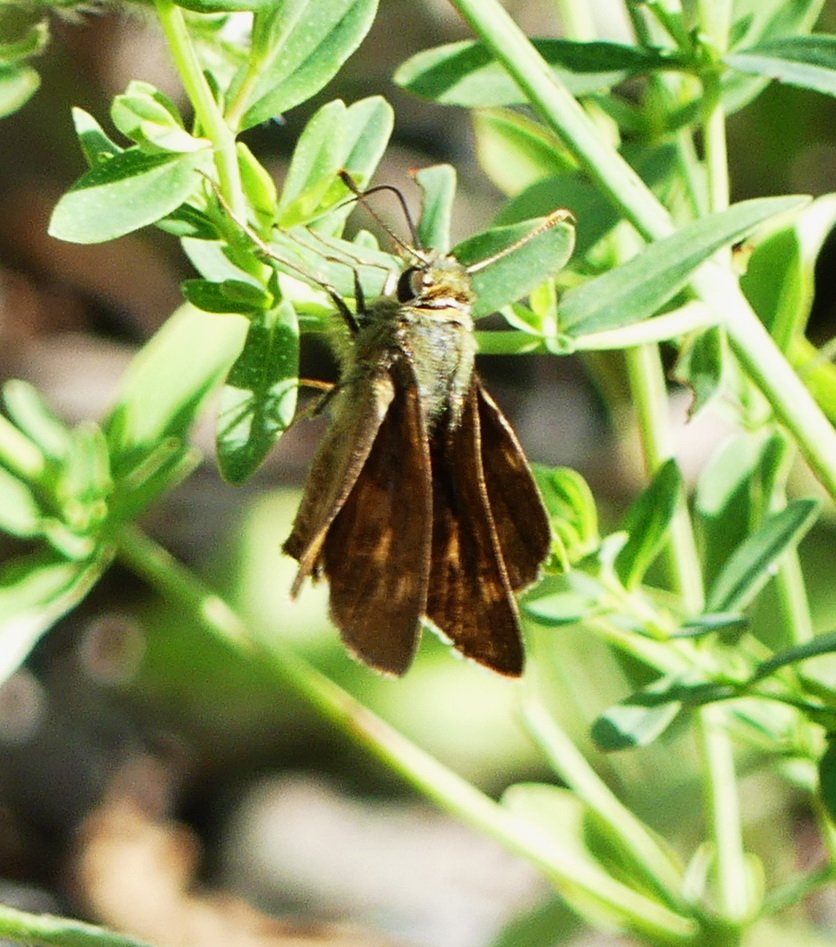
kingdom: Animalia
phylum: Arthropoda
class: Insecta
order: Lepidoptera
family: Hesperiidae
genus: Polites
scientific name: Polites egeremet
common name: Northern Broken-Dash
